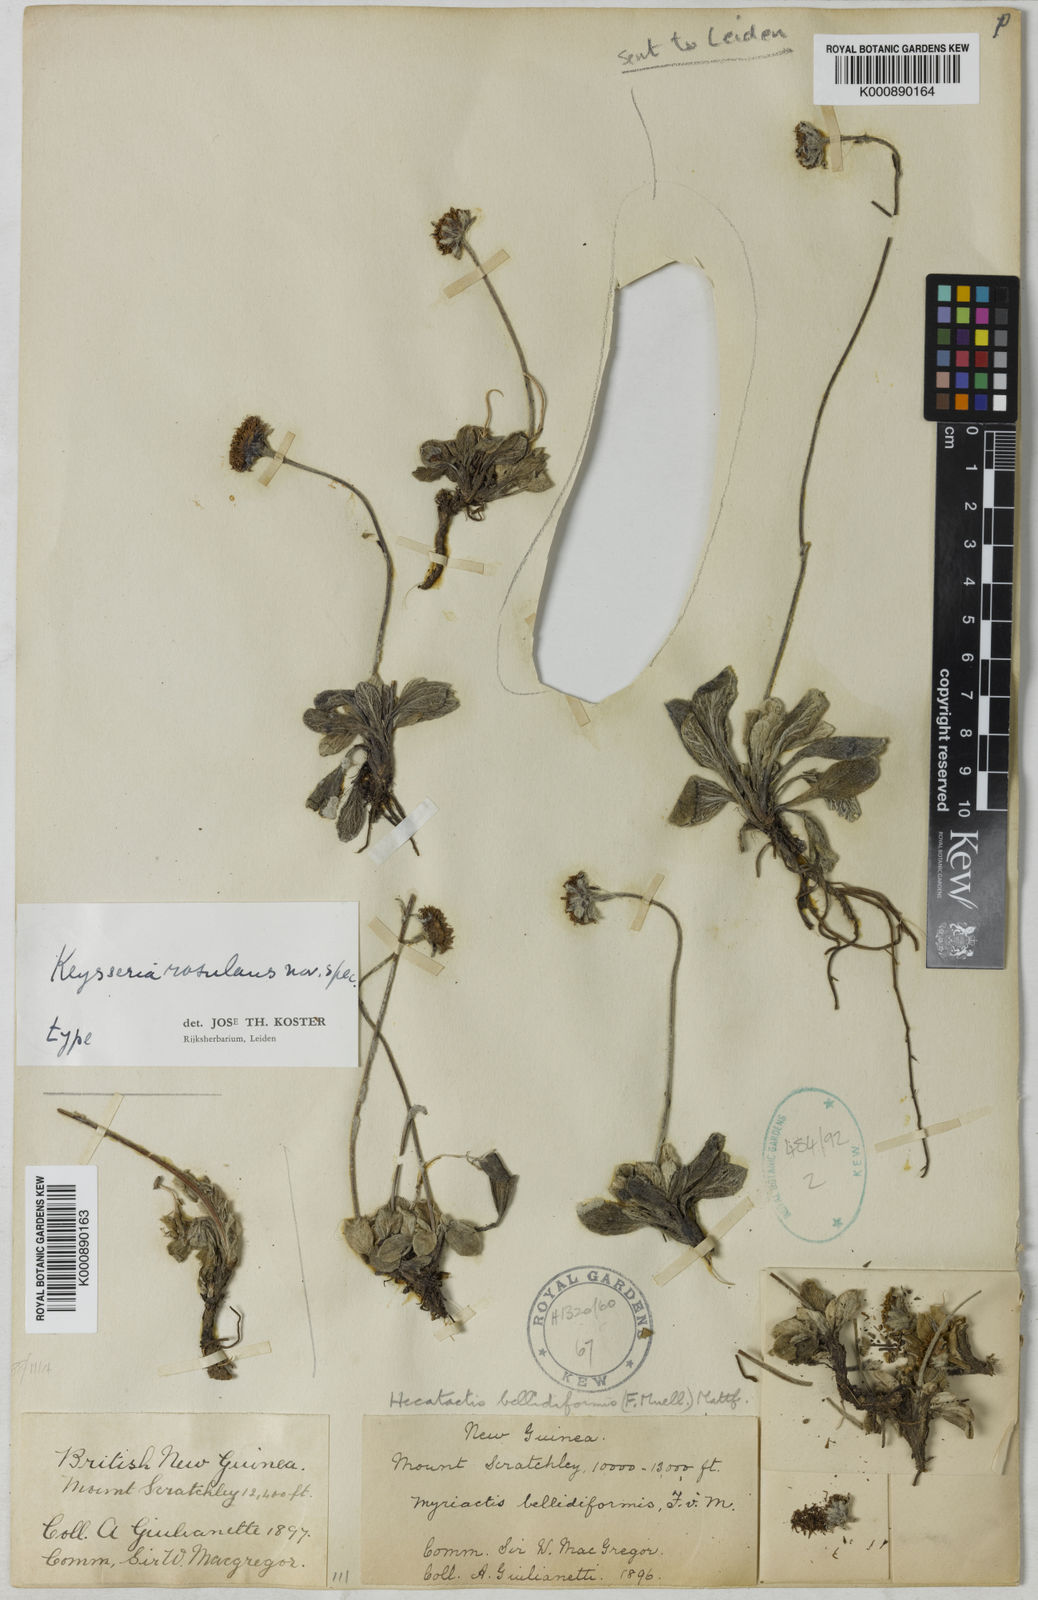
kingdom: Plantae
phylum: Tracheophyta
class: Magnoliopsida
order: Asterales
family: Asteraceae
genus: Keysseria
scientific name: Keysseria rosulans
